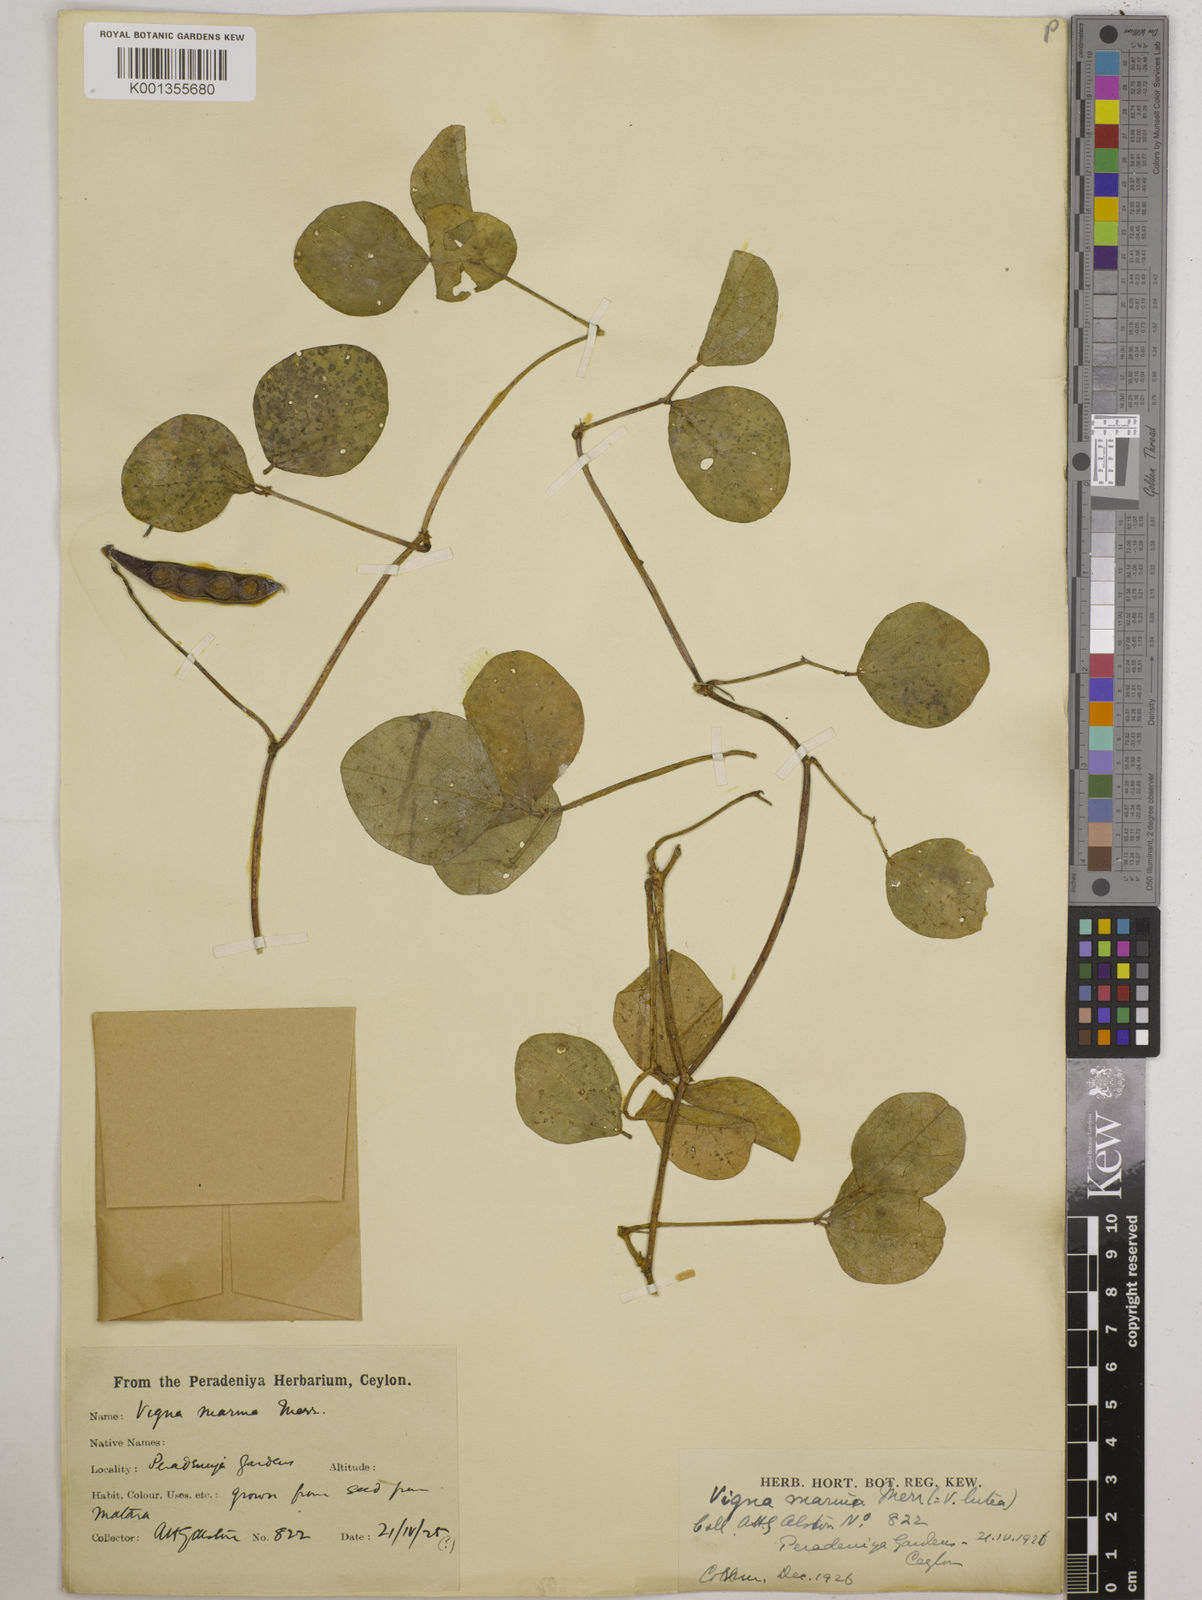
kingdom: Plantae
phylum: Tracheophyta
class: Magnoliopsida
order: Fabales
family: Fabaceae
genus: Vigna
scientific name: Vigna marina
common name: Dune-bean
